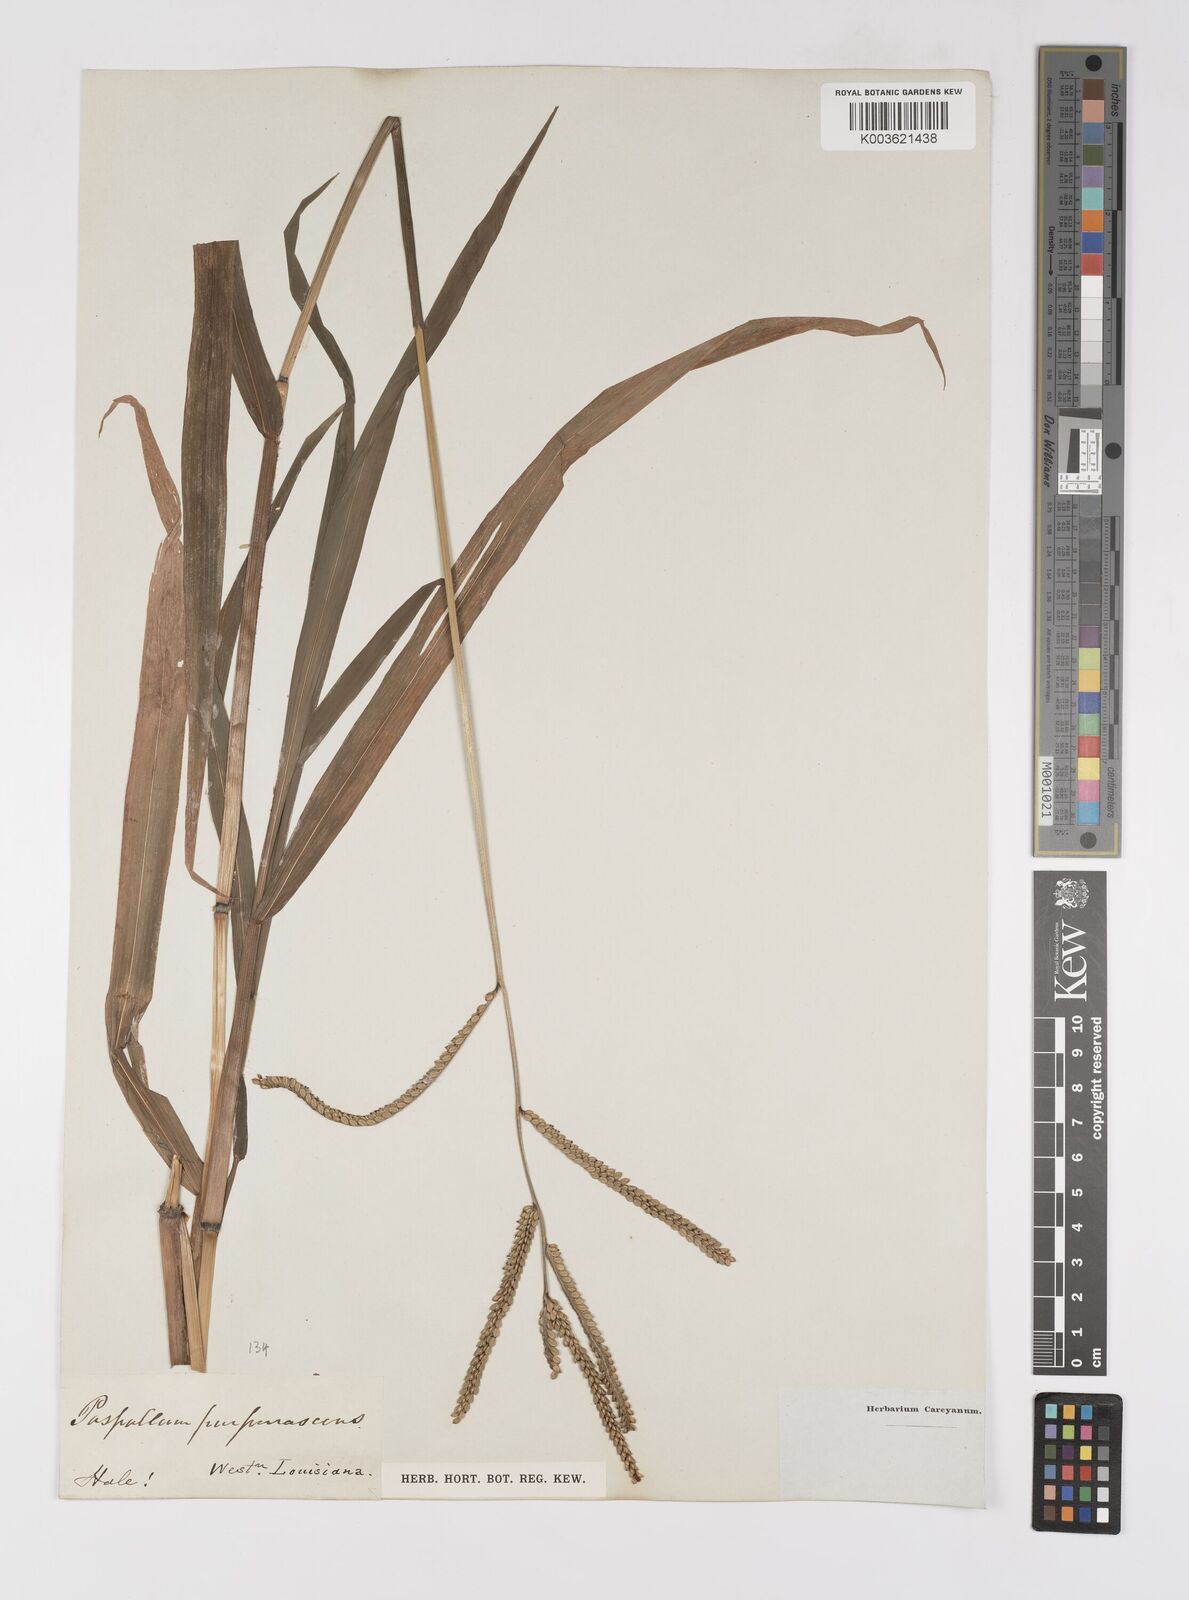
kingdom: Plantae
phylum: Tracheophyta
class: Liliopsida
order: Poales
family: Poaceae
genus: Paspalum
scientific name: Paspalum
